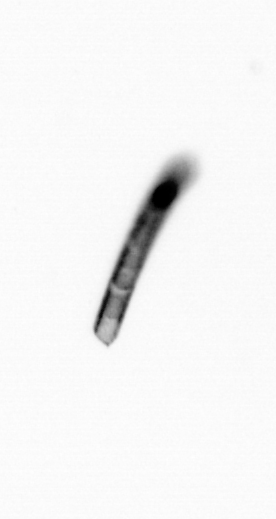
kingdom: Chromista
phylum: Ochrophyta
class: Bacillariophyceae
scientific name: Bacillariophyceae
